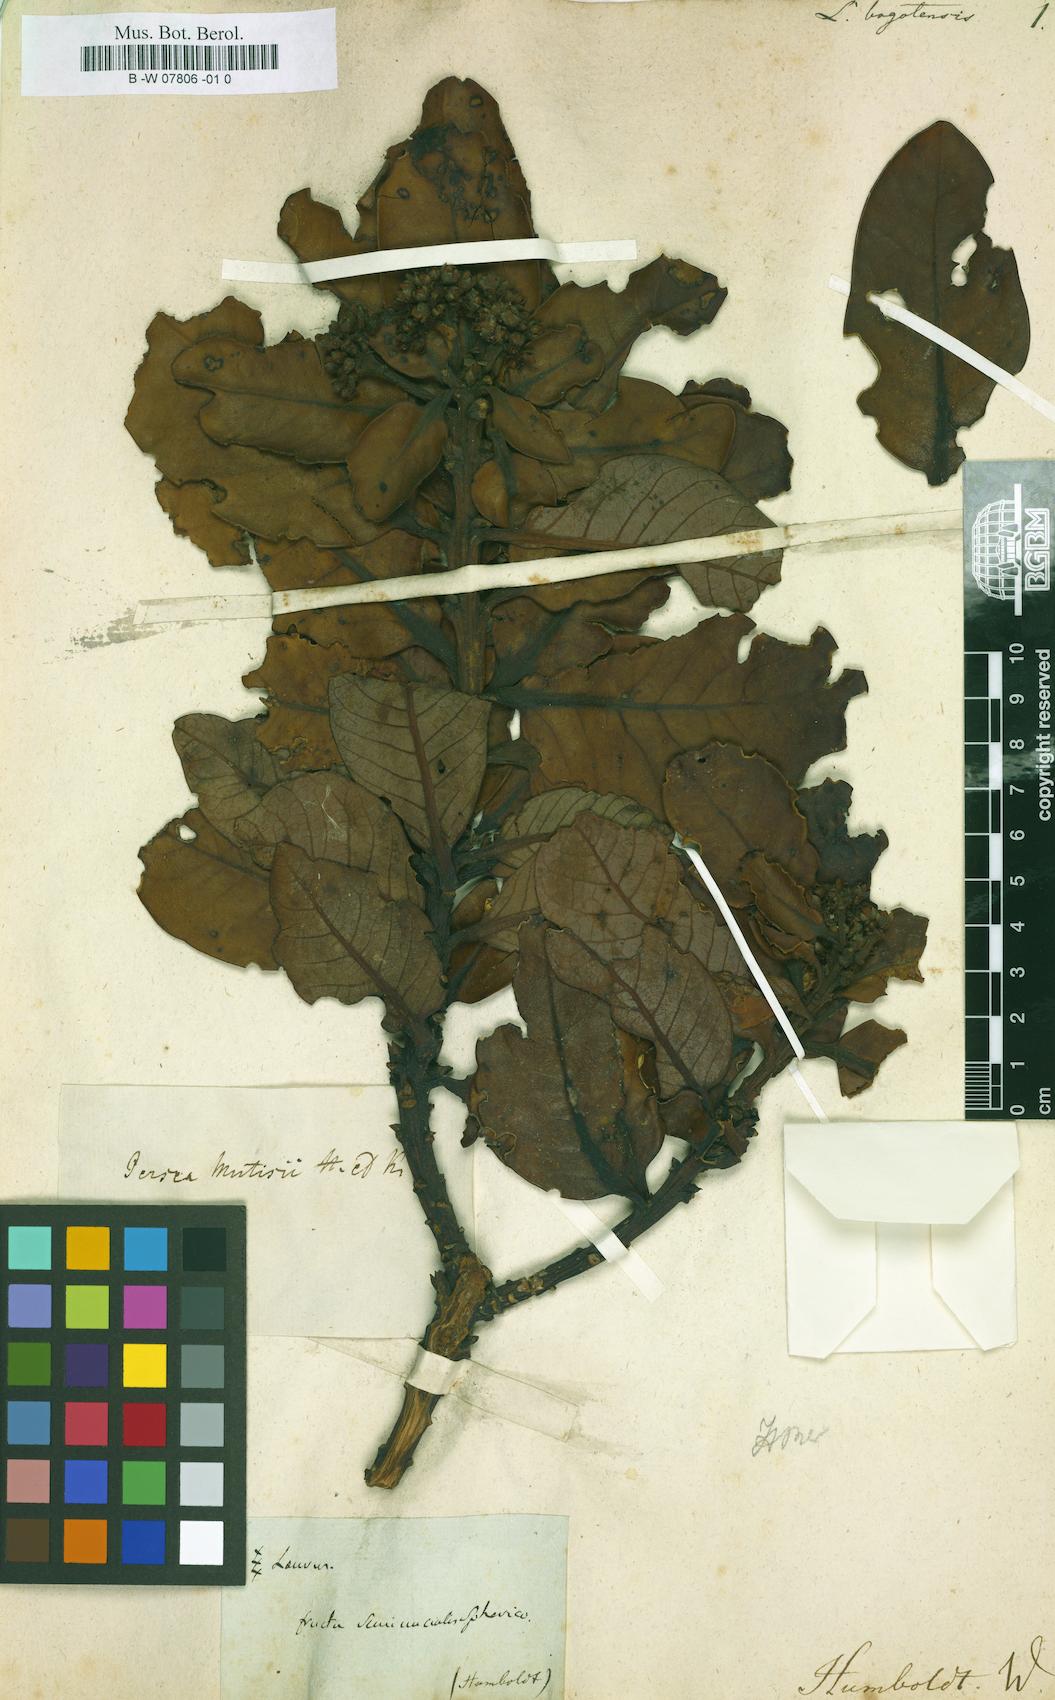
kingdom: Plantae
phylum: Tracheophyta
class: Magnoliopsida
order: Laurales
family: Lauraceae
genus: Persea
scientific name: Persea mutisii
